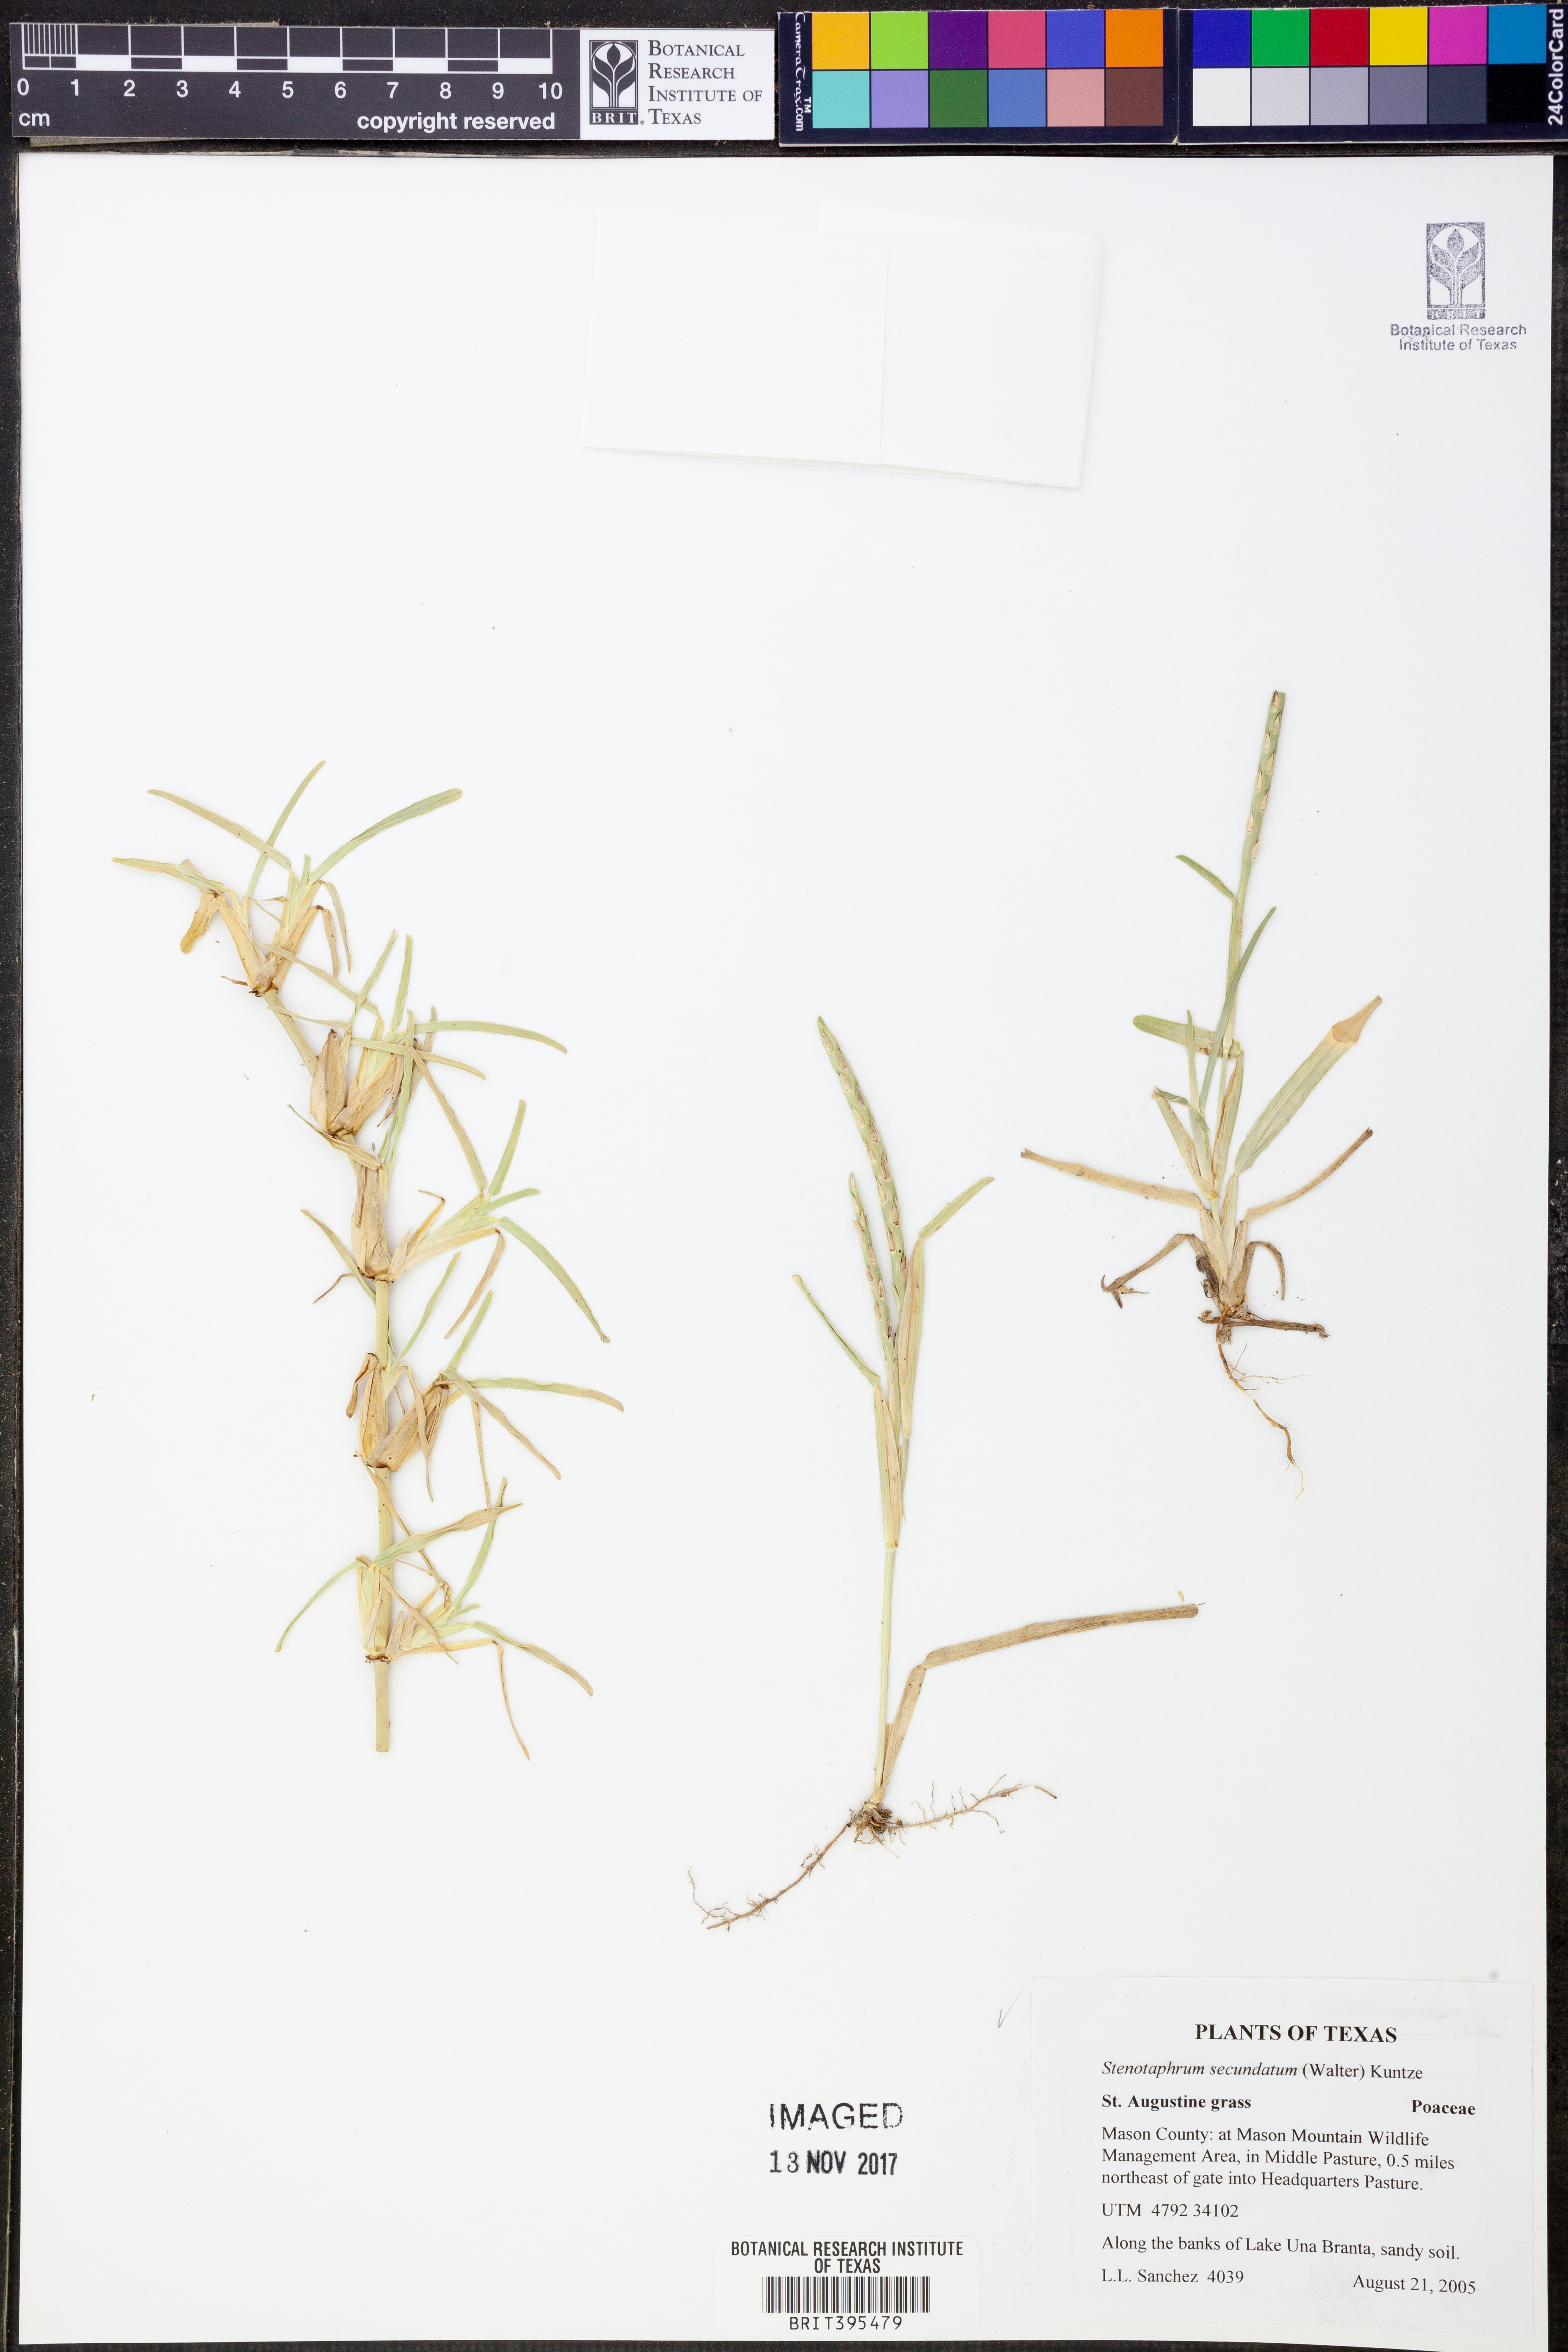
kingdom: Plantae
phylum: Tracheophyta
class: Liliopsida
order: Poales
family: Poaceae
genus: Stenotaphrum
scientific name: Stenotaphrum secundatum
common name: St. augustine grass
